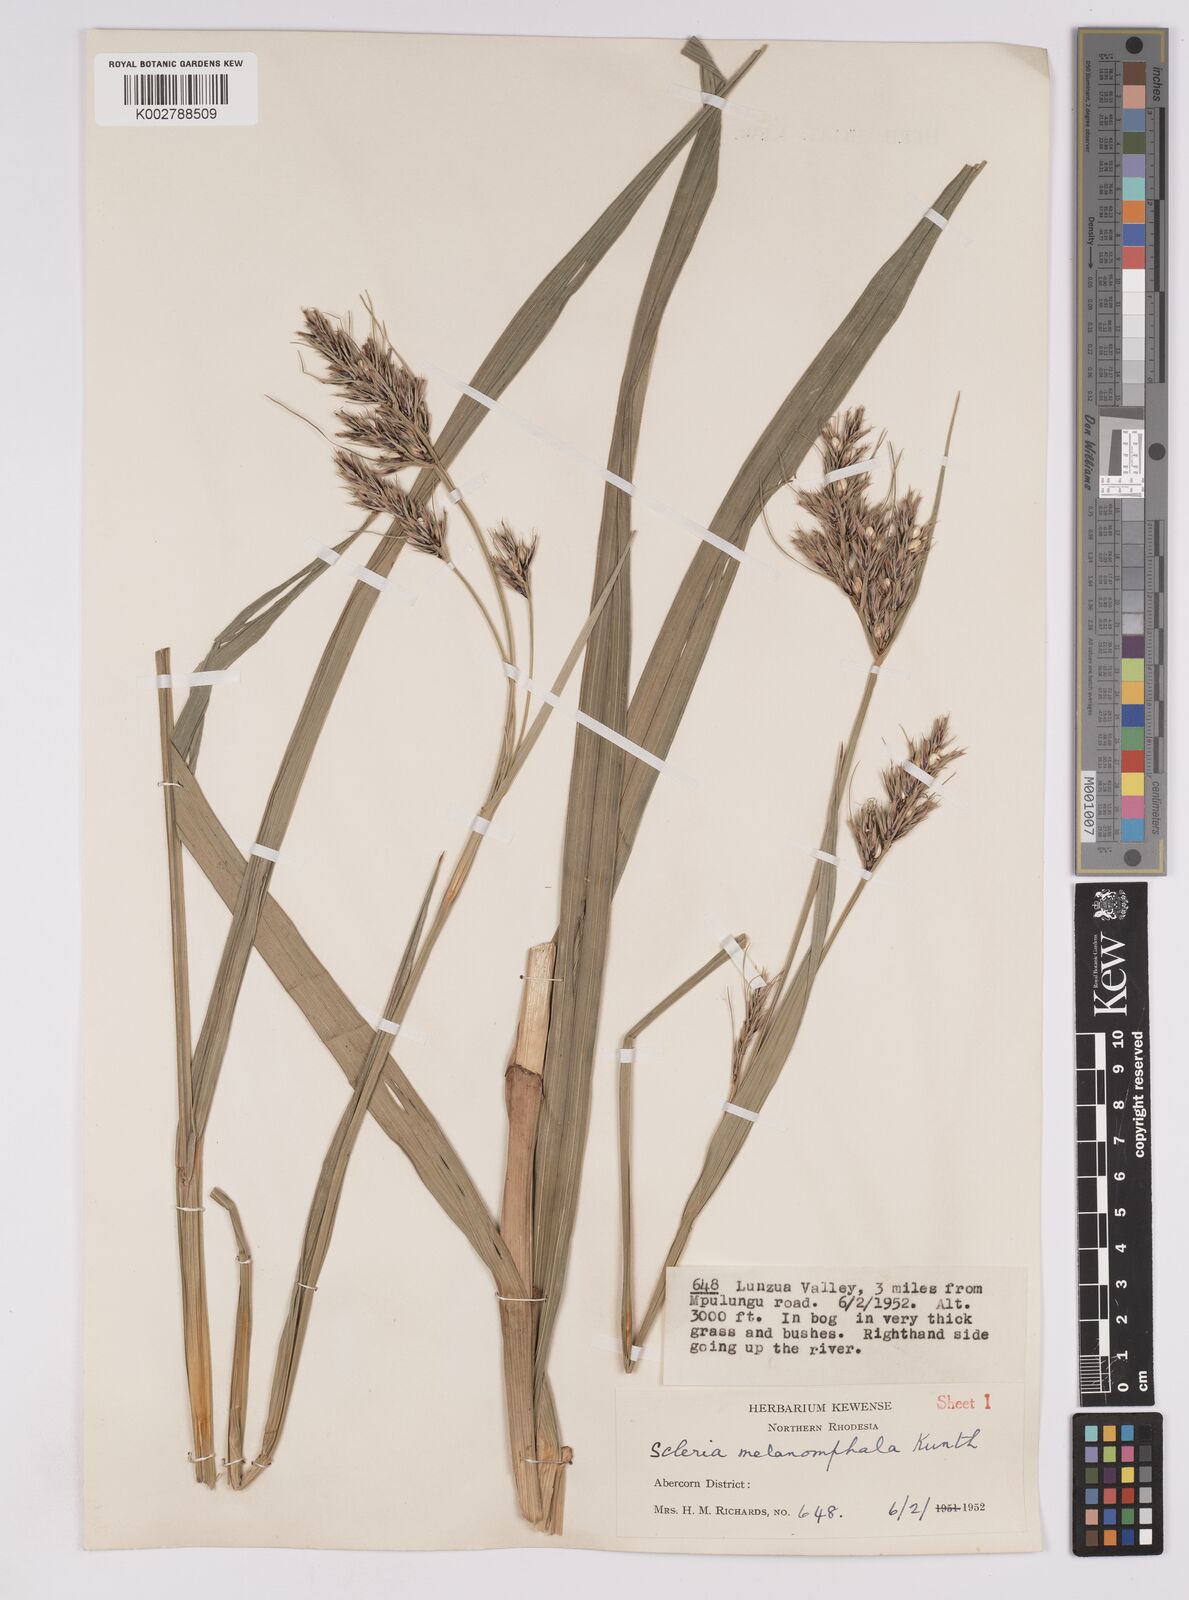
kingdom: Plantae
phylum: Tracheophyta
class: Liliopsida
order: Poales
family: Cyperaceae
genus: Scleria
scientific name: Scleria melanomphala
